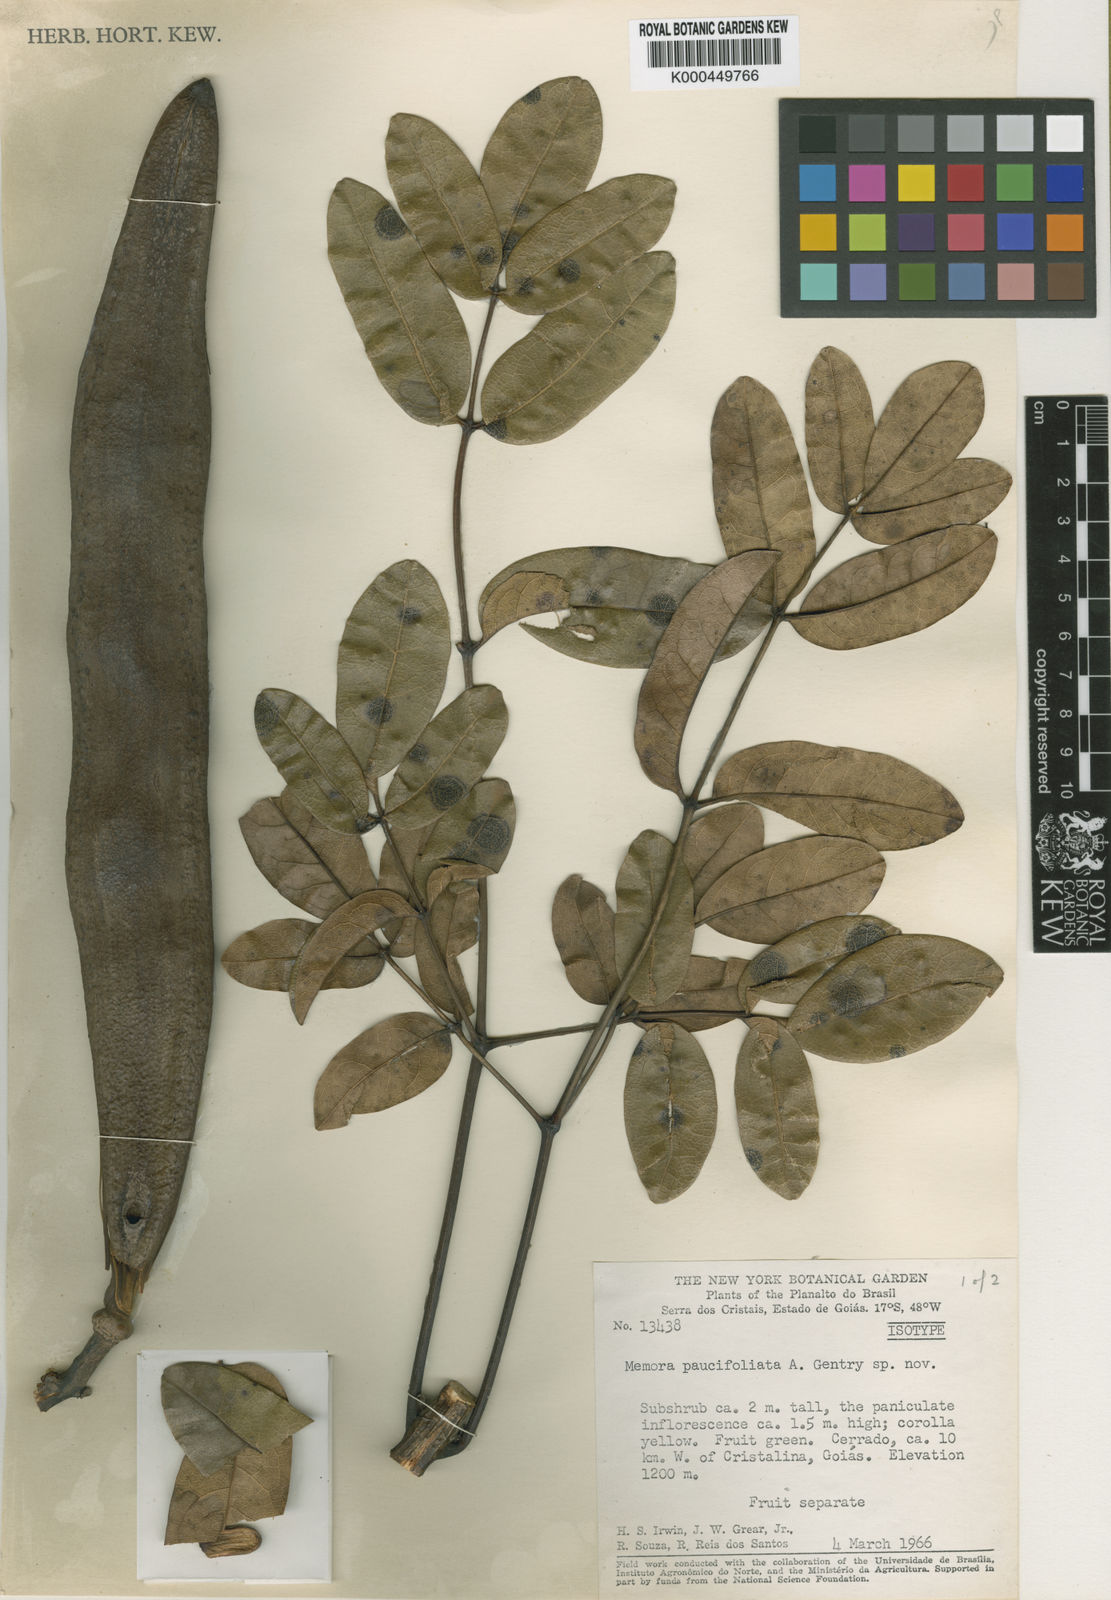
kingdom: Plantae
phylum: Tracheophyta
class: Magnoliopsida
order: Lamiales
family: Bignoniaceae
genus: Adenocalymma
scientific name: Adenocalymma paucifoliolatum
